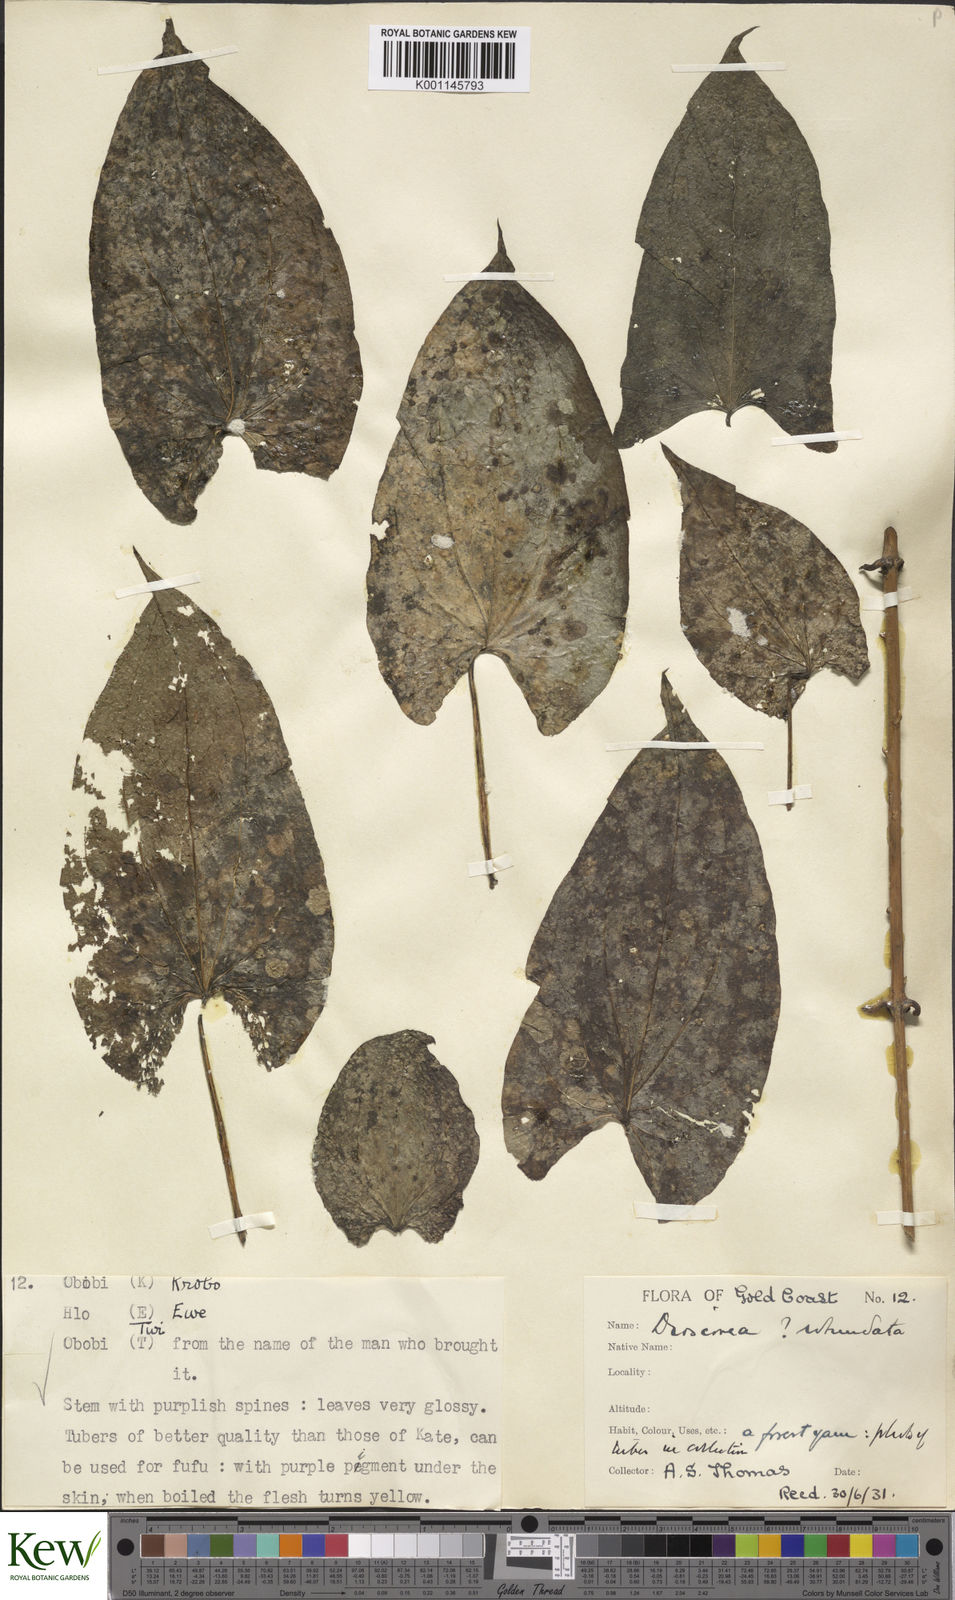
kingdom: Plantae
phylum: Tracheophyta
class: Liliopsida
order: Dioscoreales
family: Dioscoreaceae
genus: Dioscorea
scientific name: Dioscorea cayenensis
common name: Attoto yam
